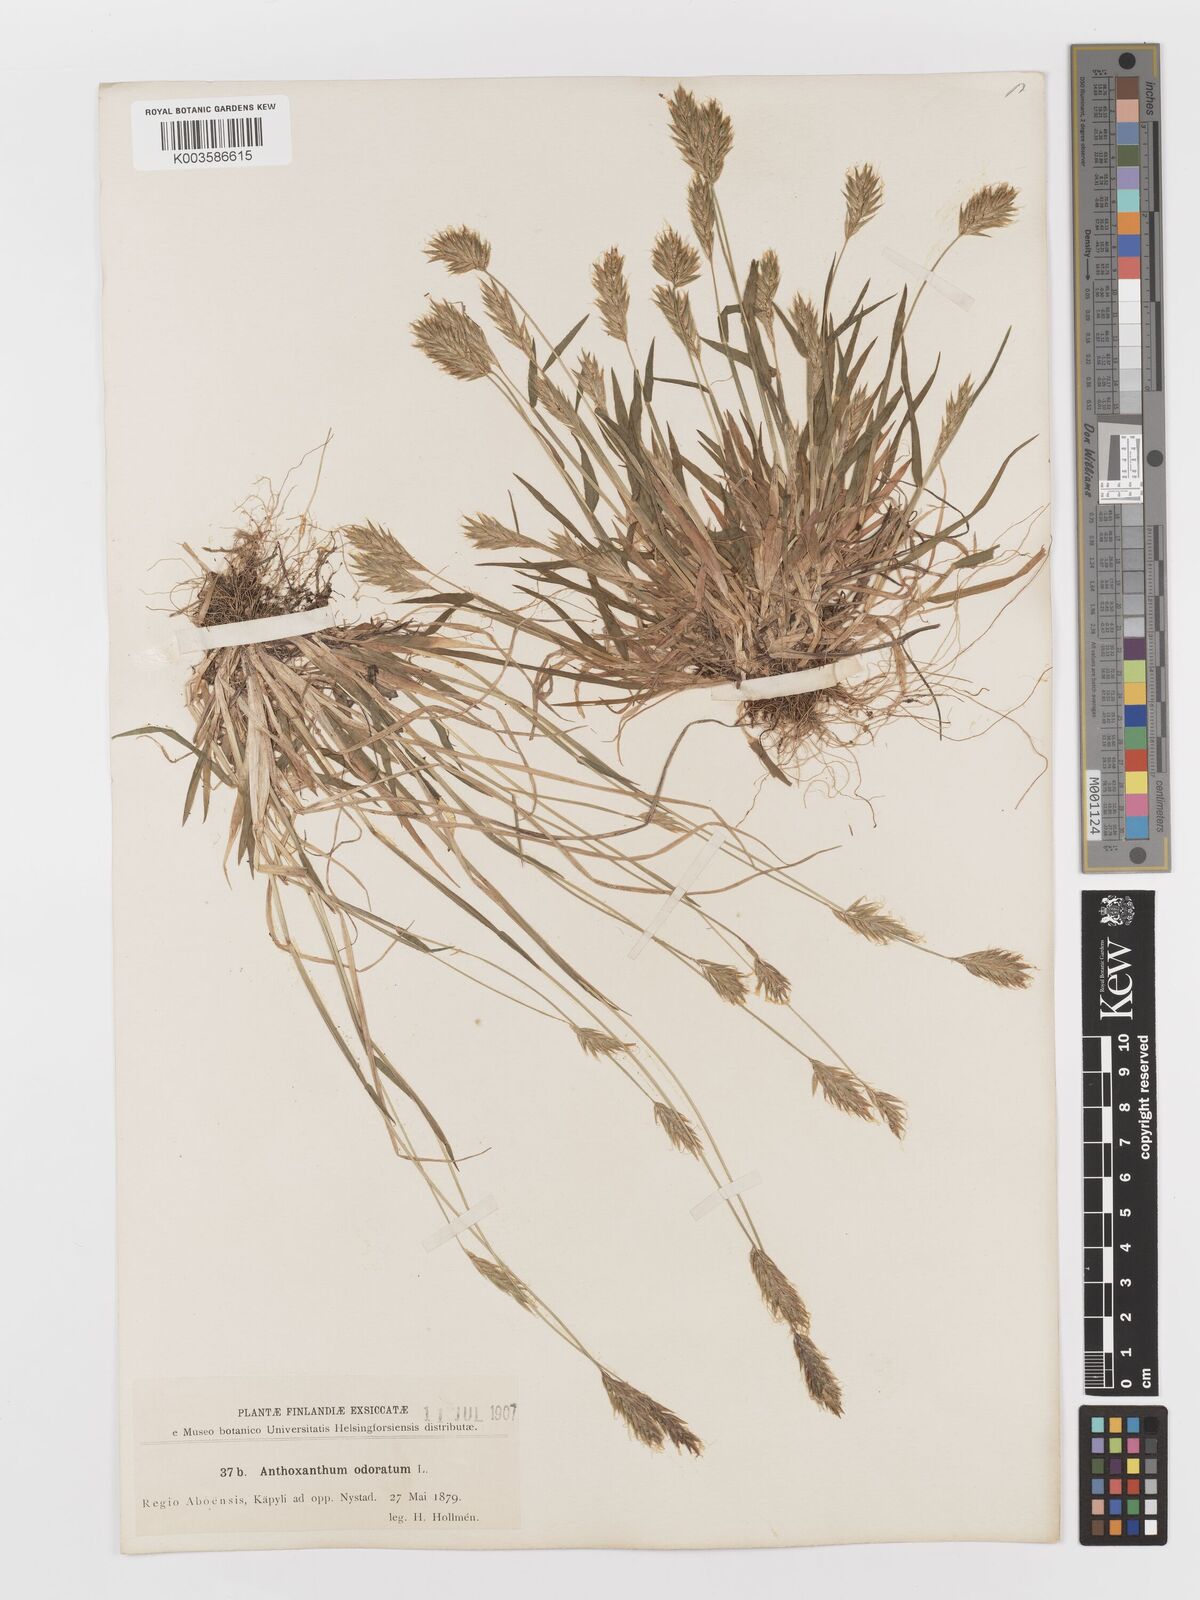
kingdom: Plantae
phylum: Tracheophyta
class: Liliopsida
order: Poales
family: Poaceae
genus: Anthoxanthum
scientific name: Anthoxanthum odoratum
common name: Sweet vernalgrass
